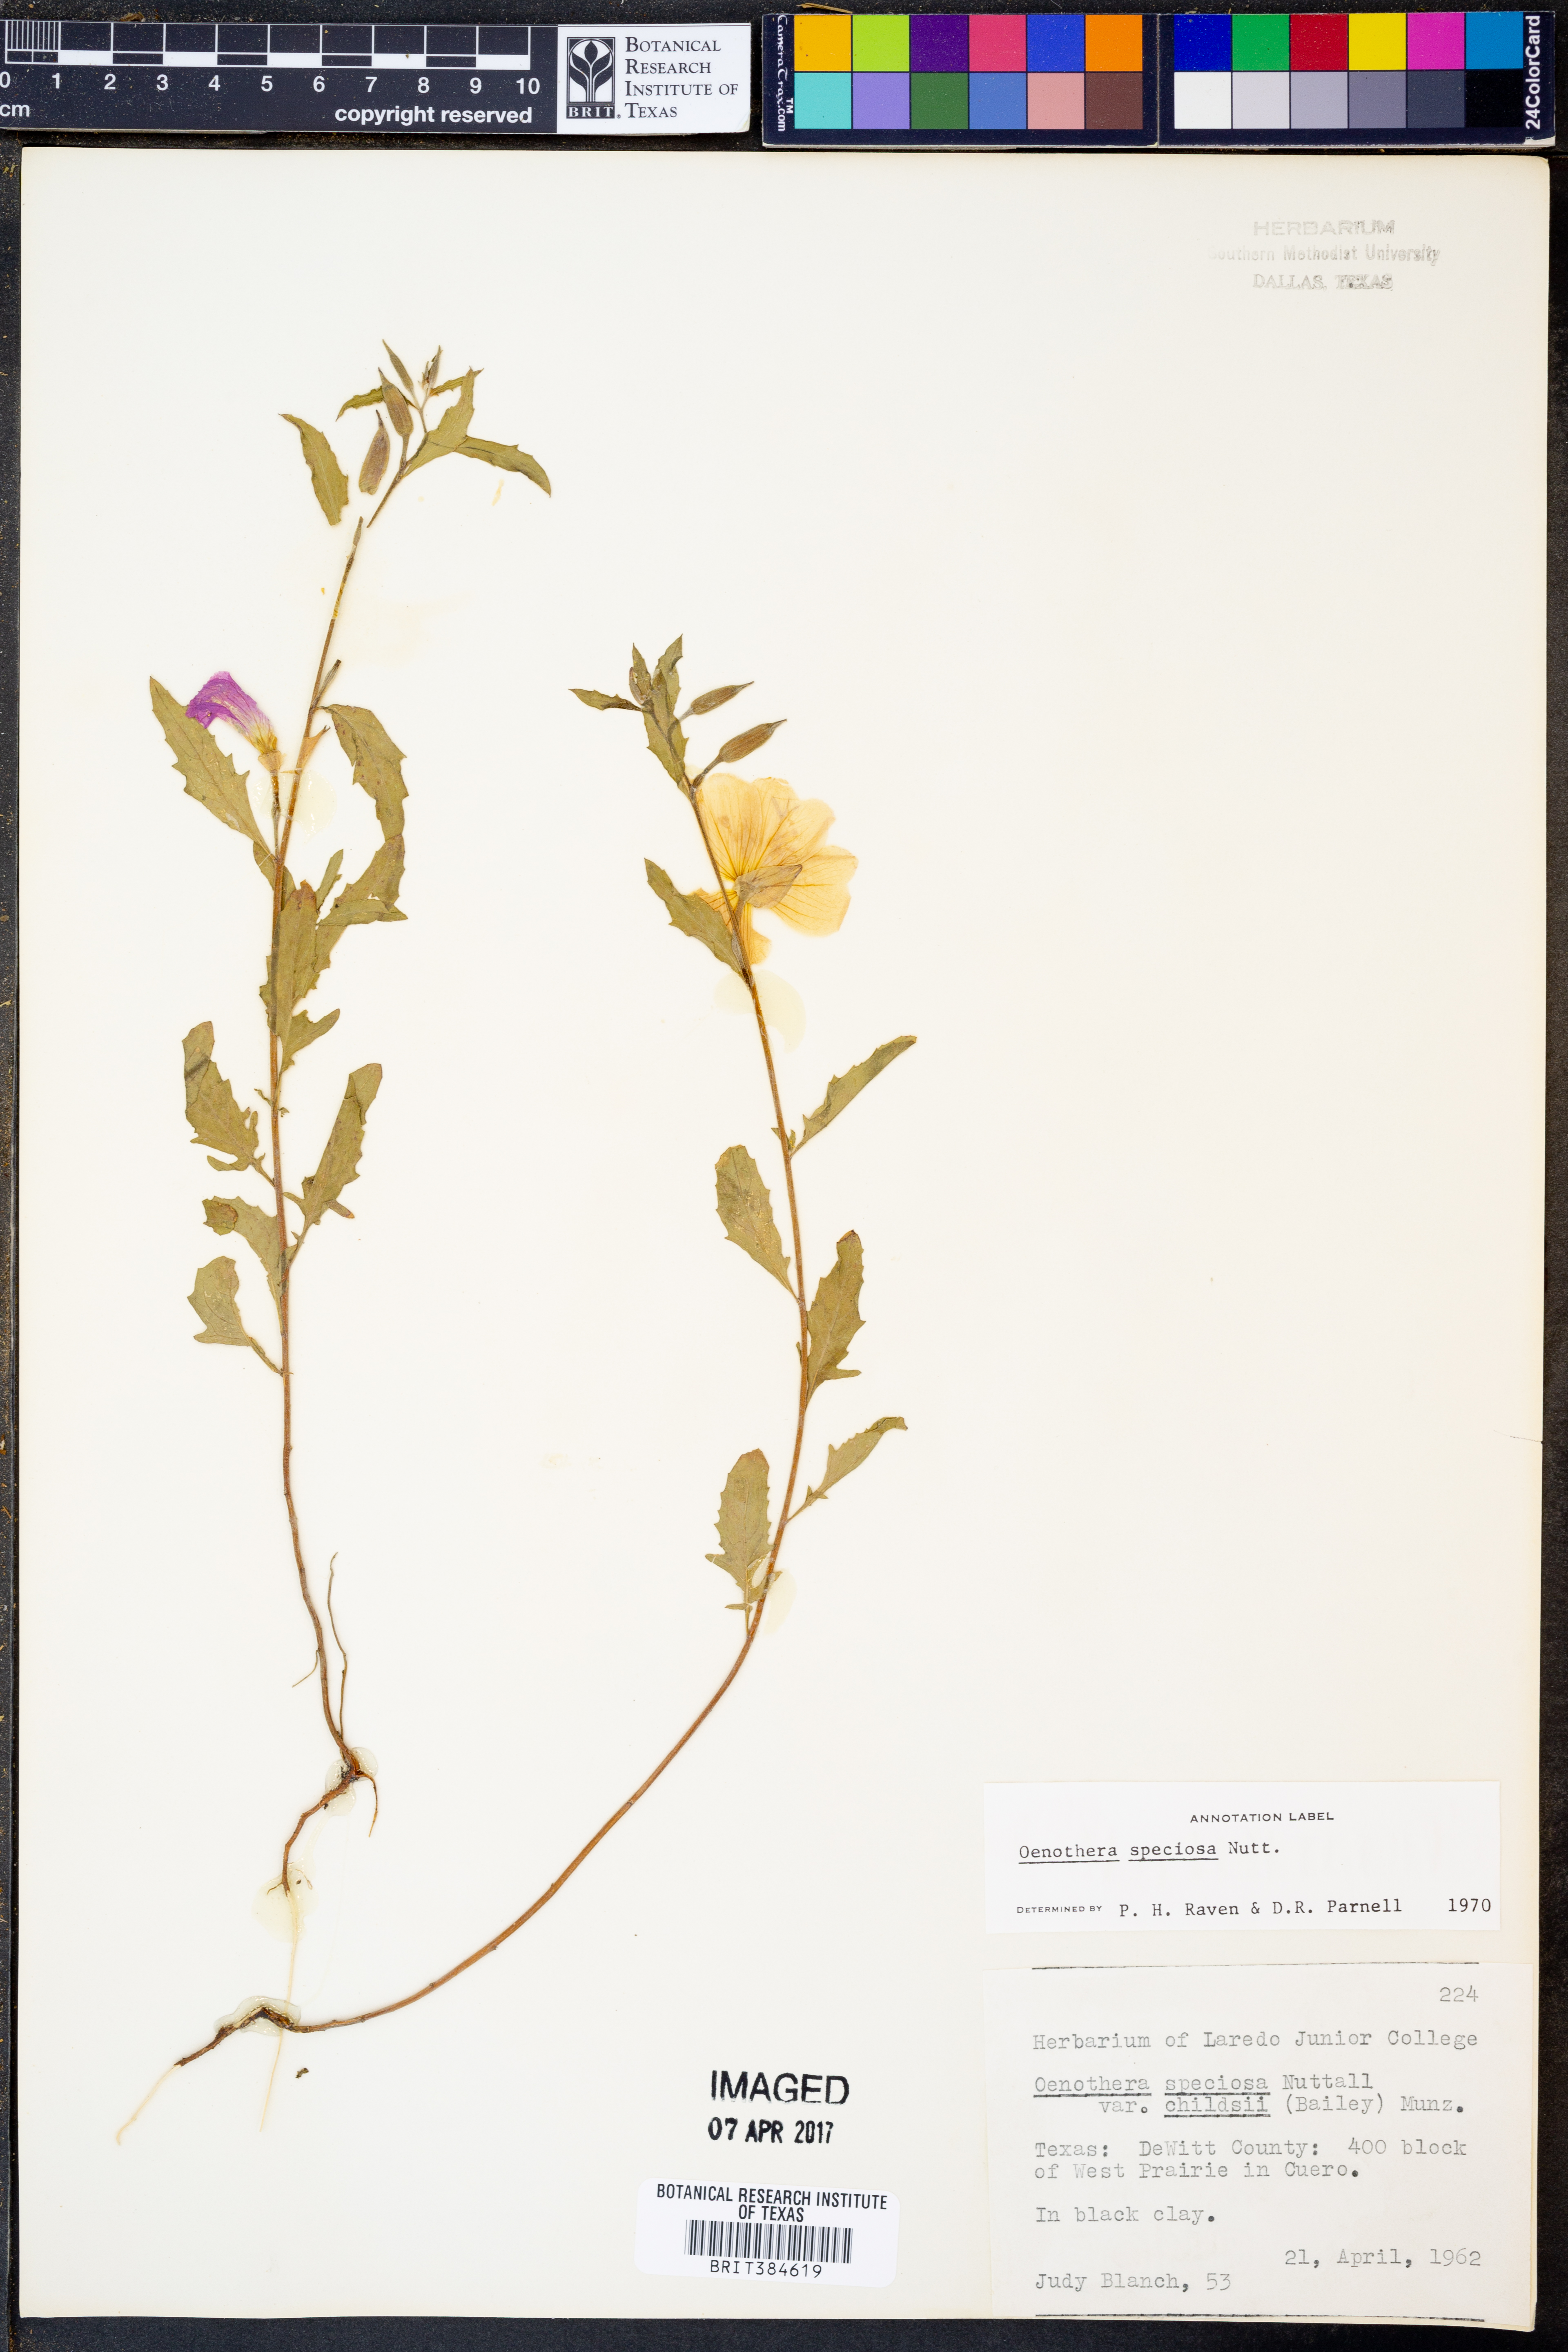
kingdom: Plantae
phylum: Tracheophyta
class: Magnoliopsida
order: Myrtales
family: Onagraceae
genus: Oenothera
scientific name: Oenothera speciosa
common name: White evening-primrose
